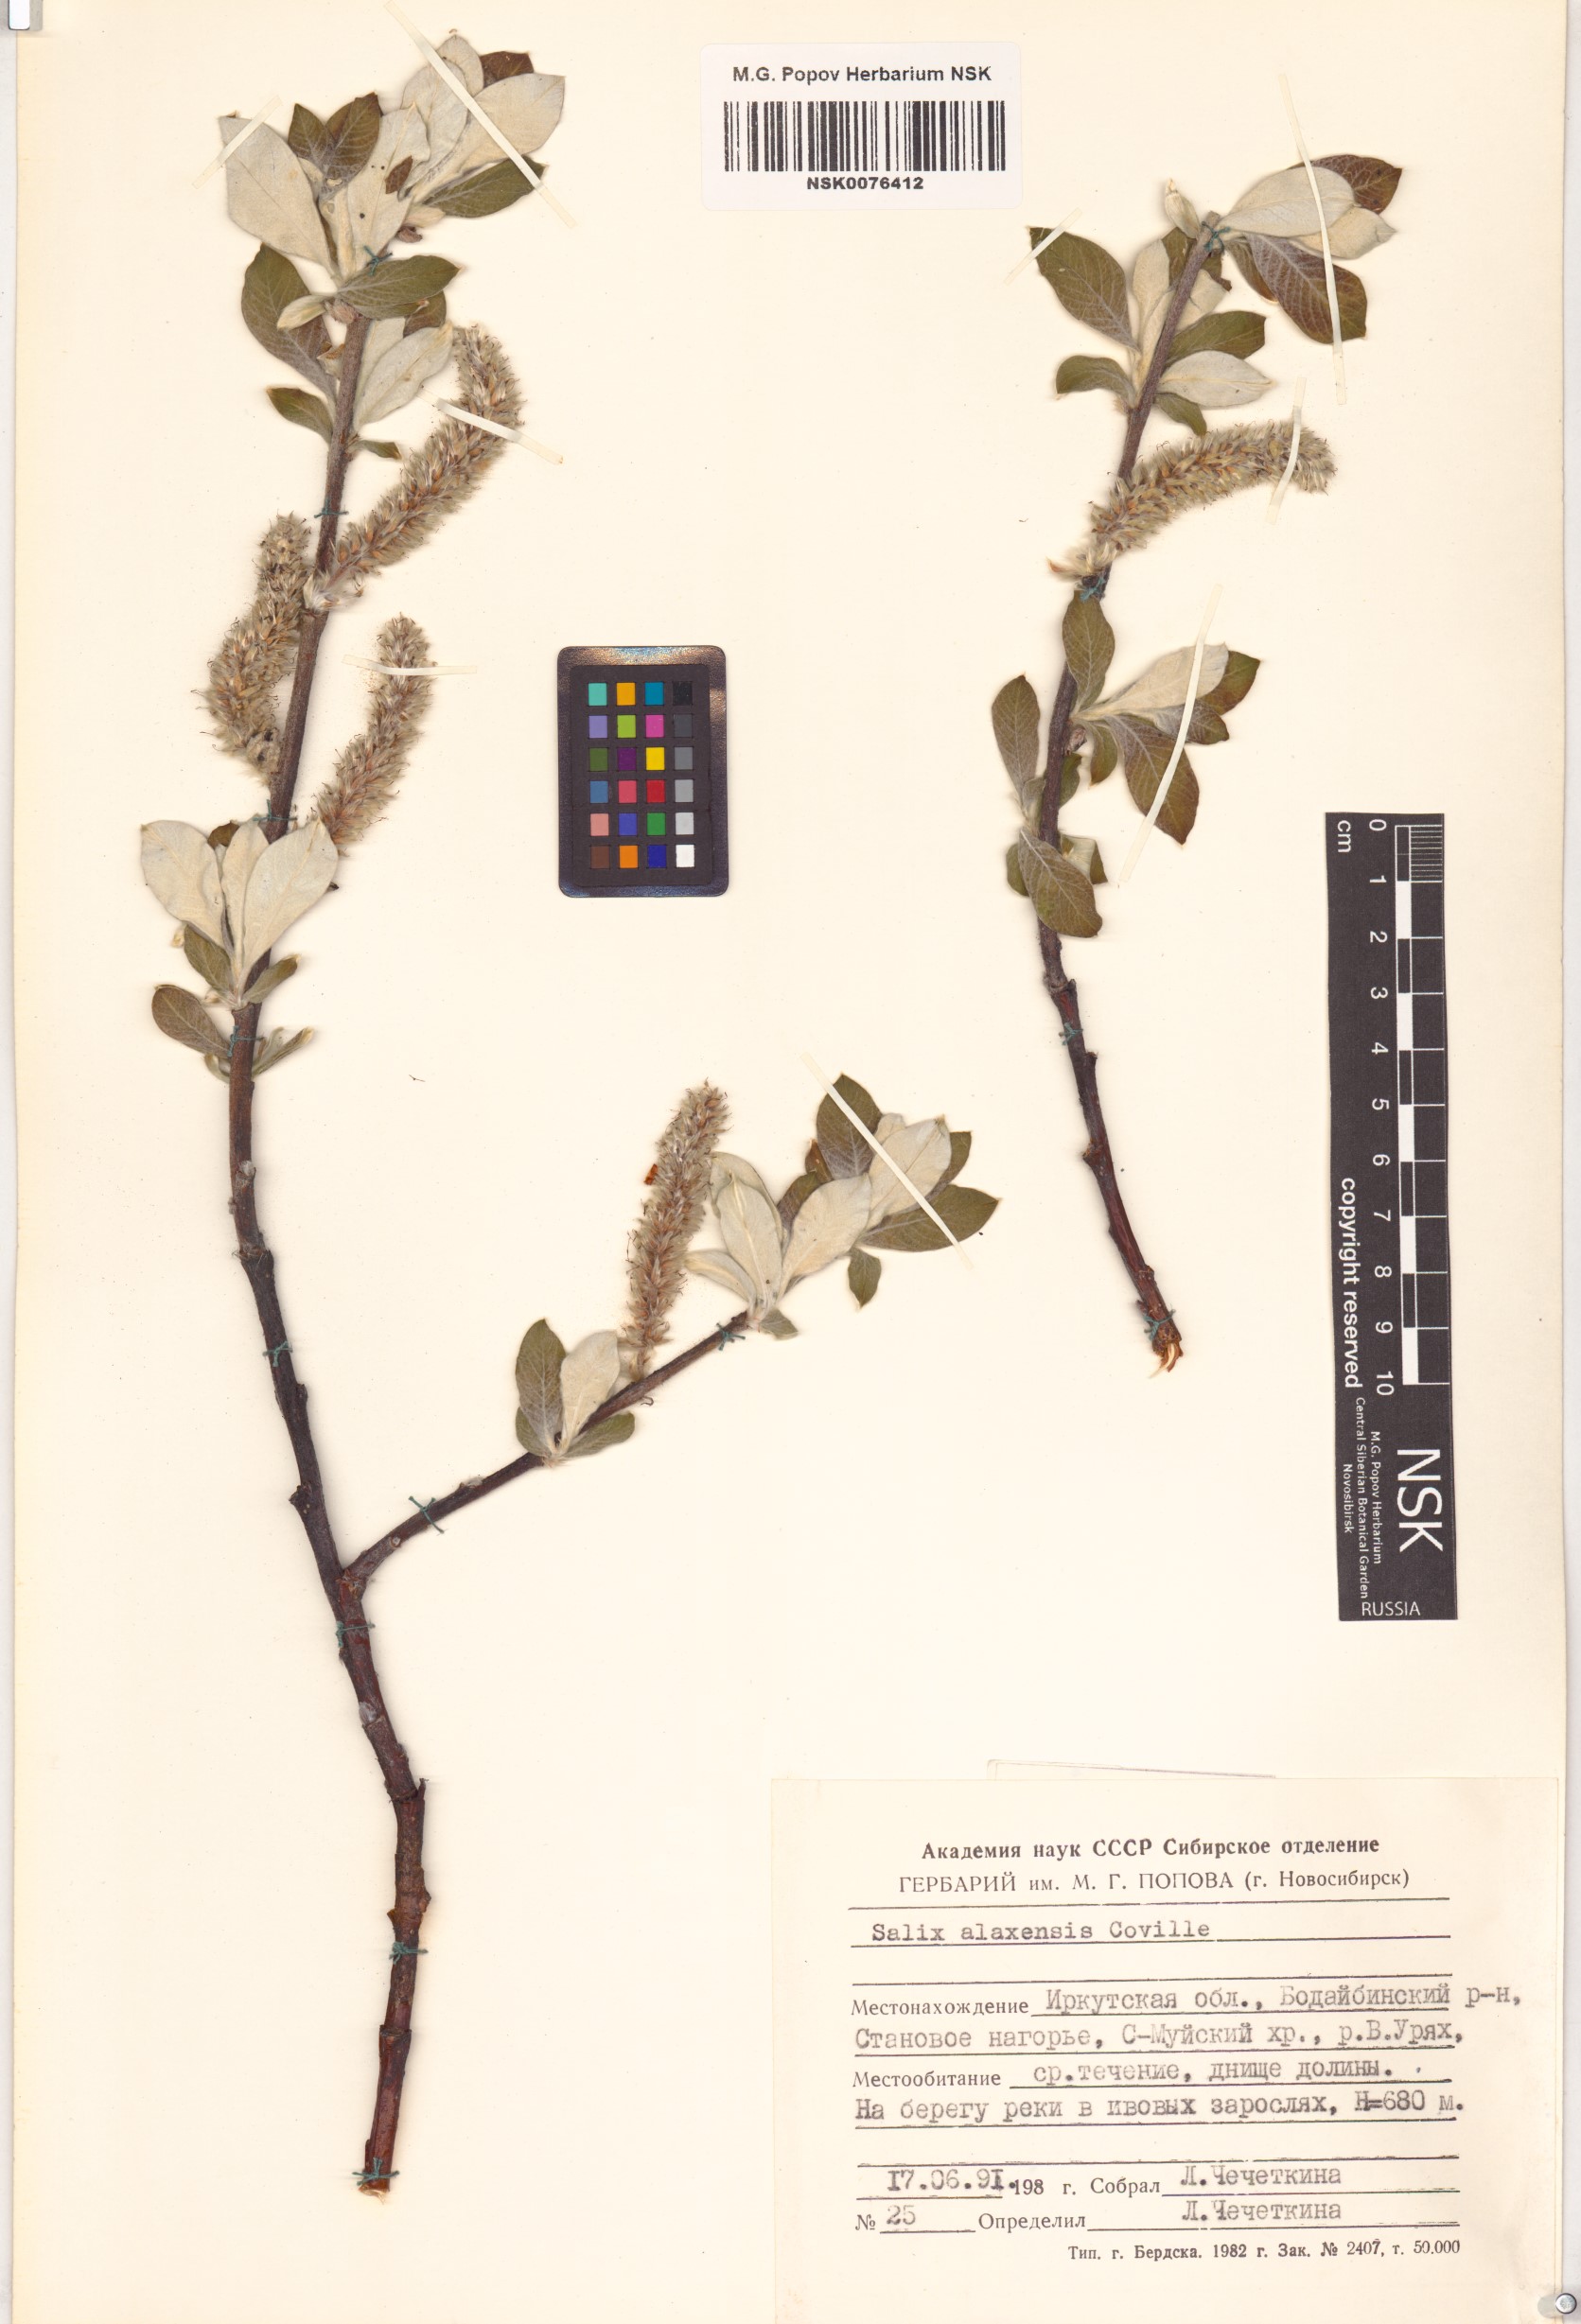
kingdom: Plantae
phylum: Tracheophyta
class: Magnoliopsida
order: Malpighiales
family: Salicaceae
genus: Salix
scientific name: Salix alaxensis
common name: Feltleaf willow
